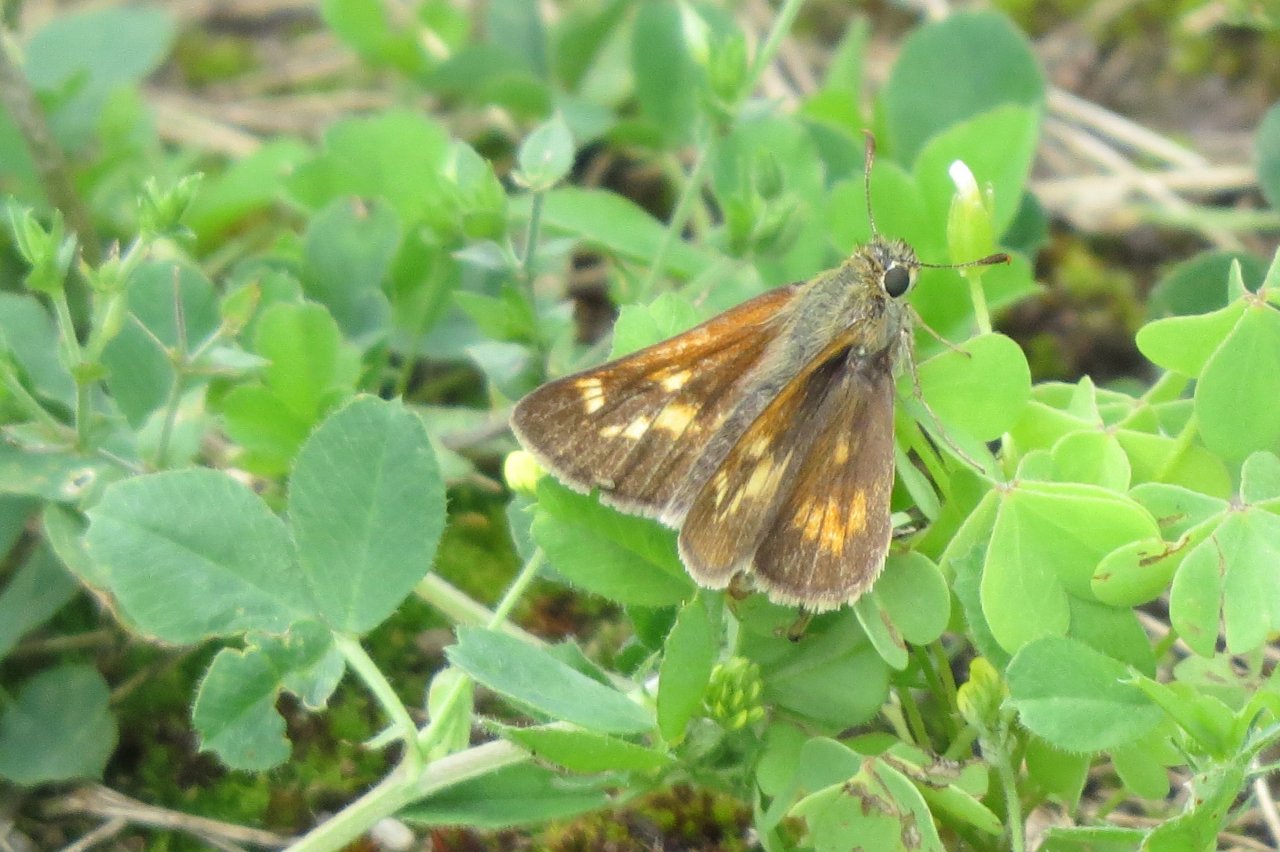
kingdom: Animalia
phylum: Arthropoda
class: Insecta
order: Lepidoptera
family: Hesperiidae
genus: Polites
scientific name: Polites
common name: Long Dash Skipper
